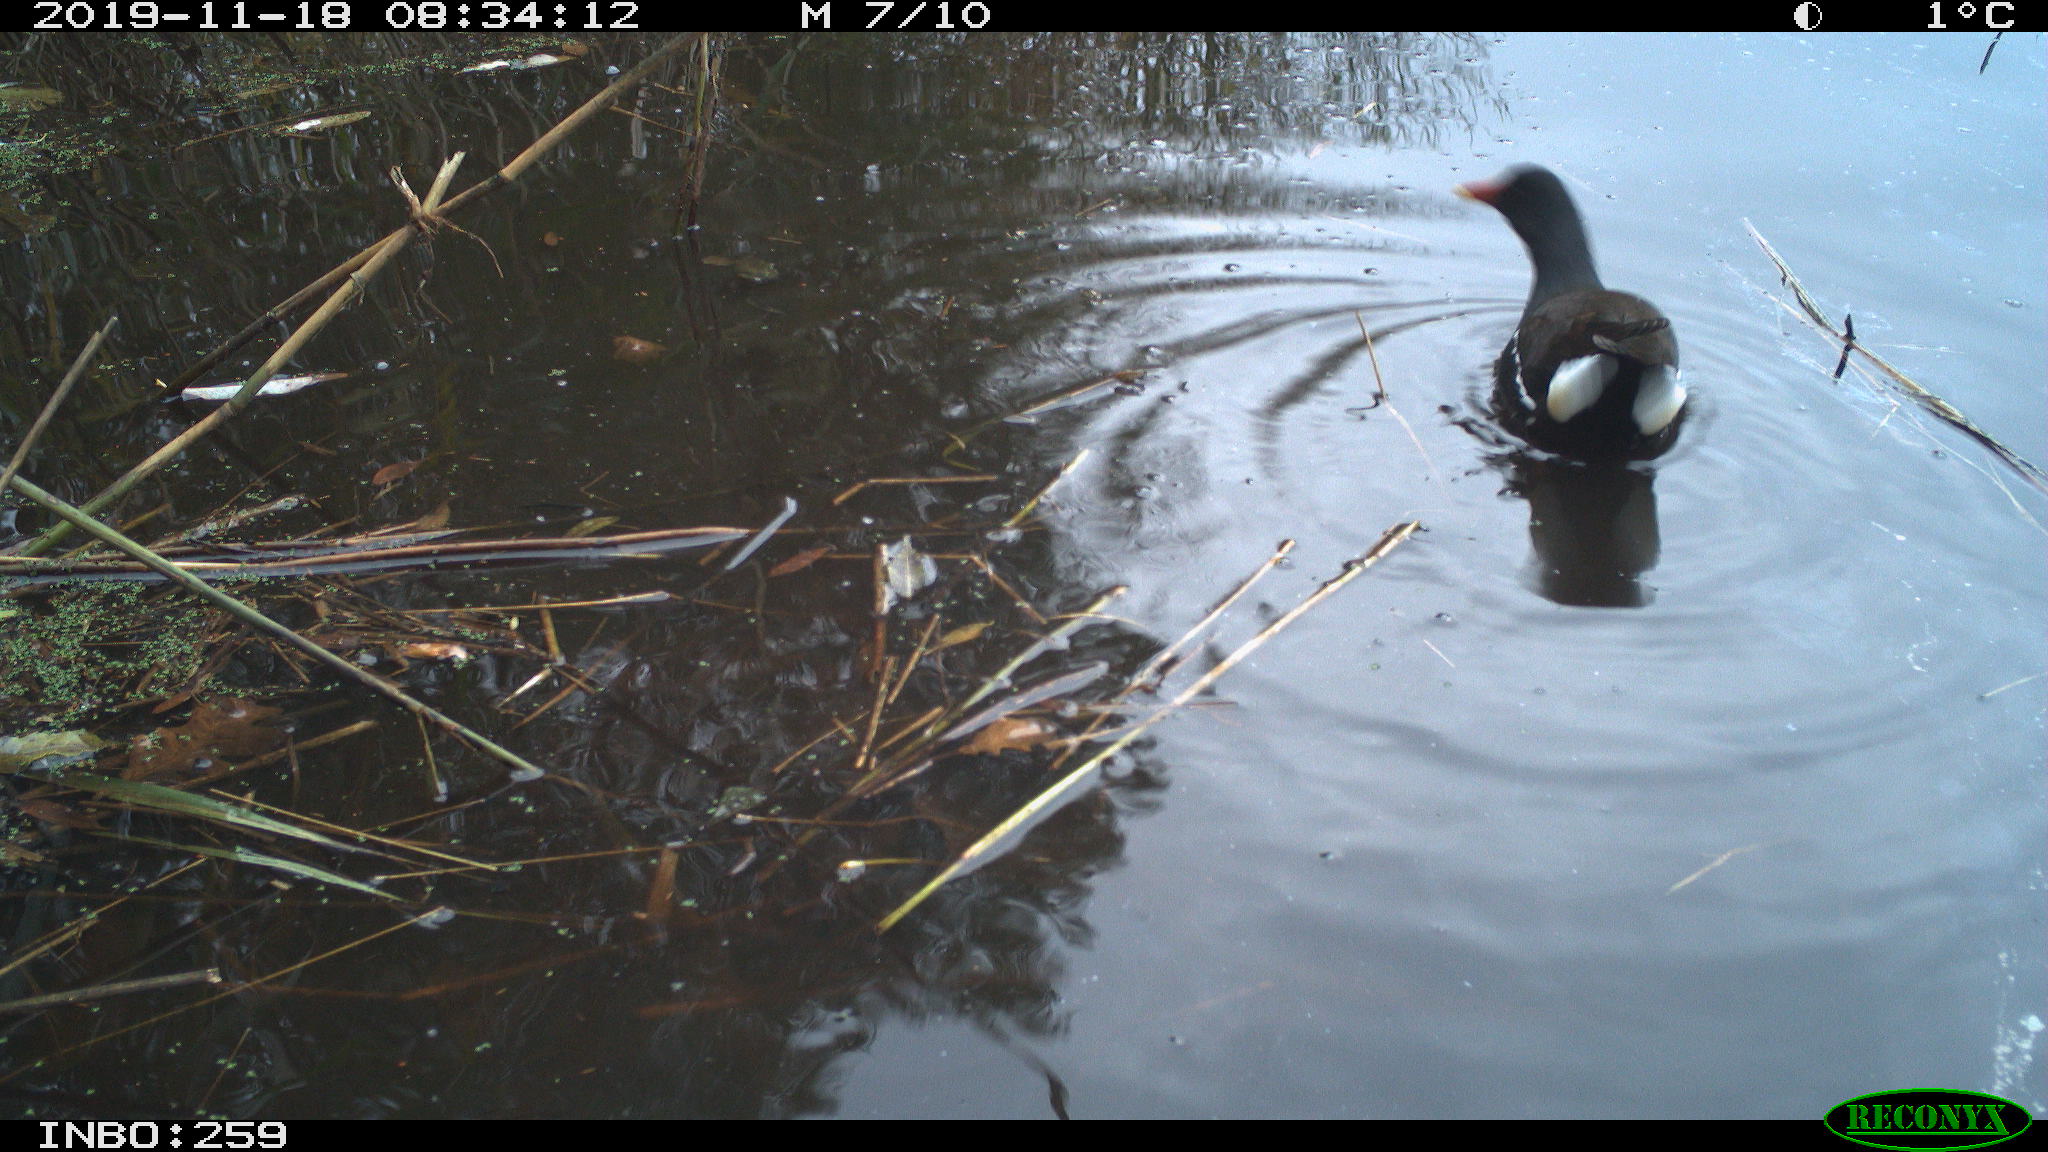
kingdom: Animalia
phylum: Chordata
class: Aves
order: Gruiformes
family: Rallidae
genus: Gallinula
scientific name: Gallinula chloropus
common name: Common moorhen
